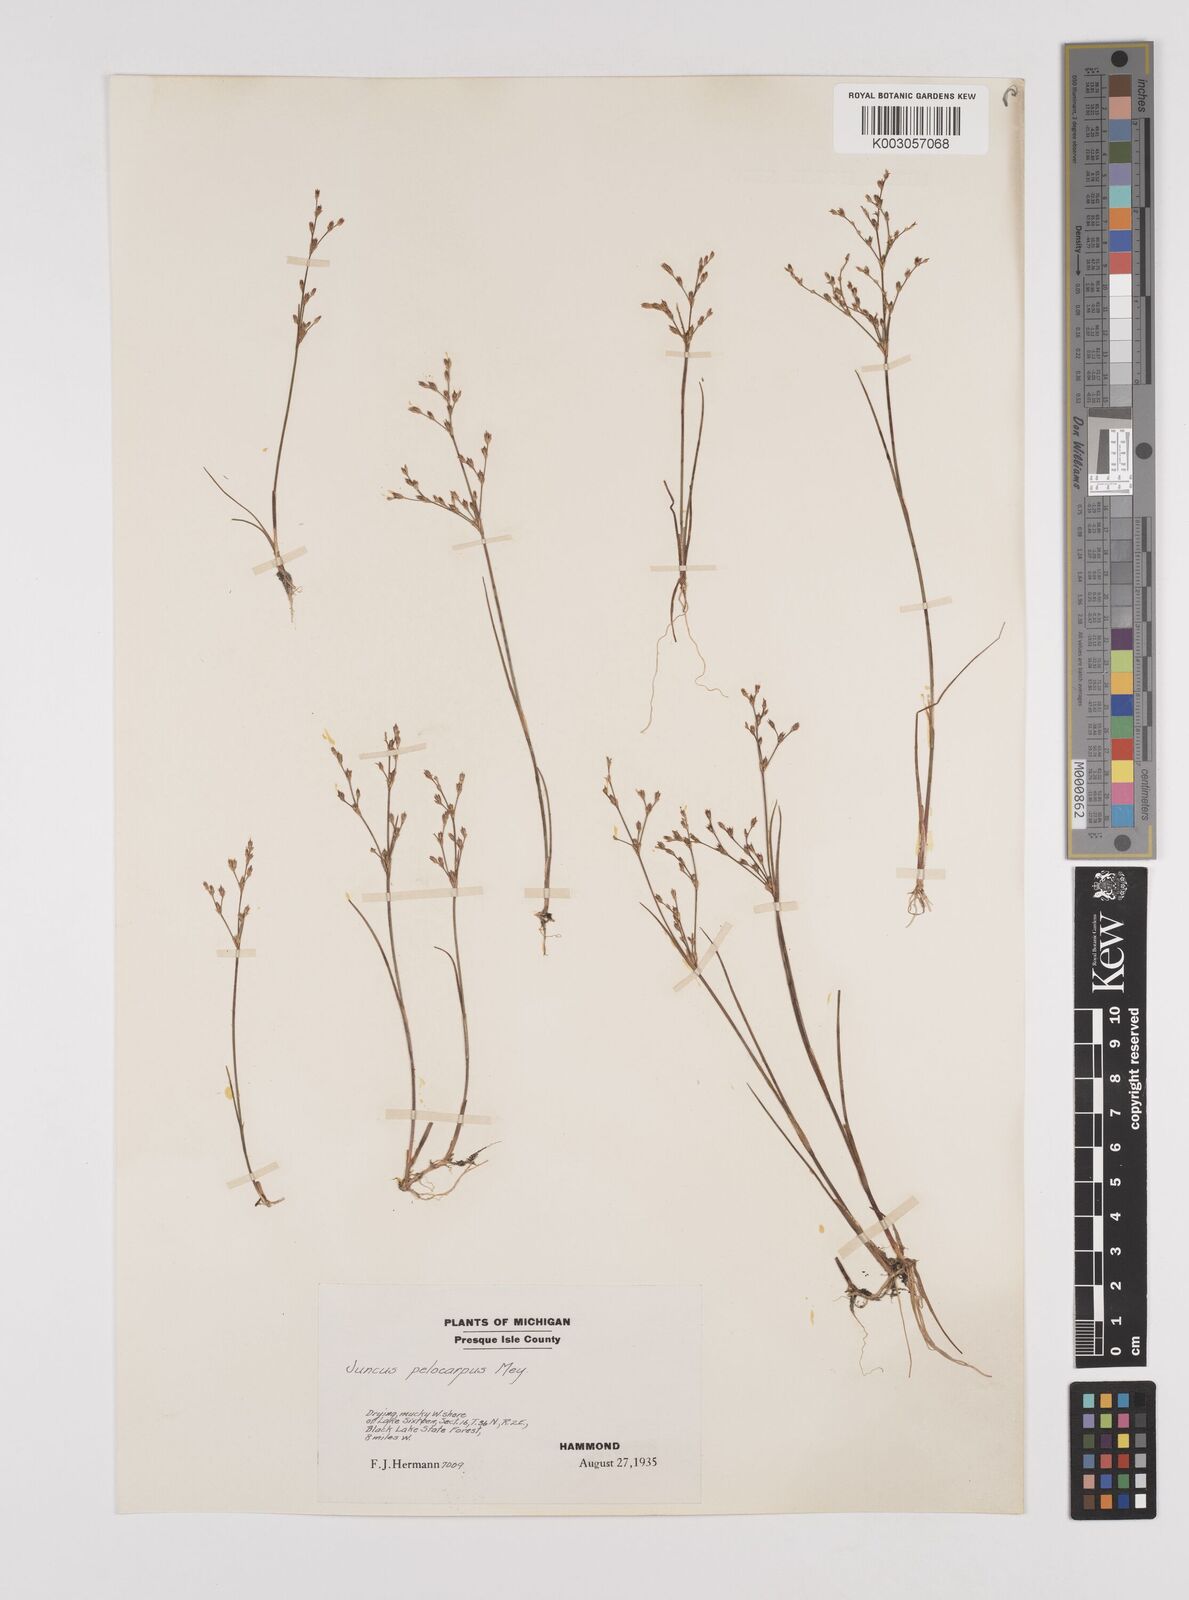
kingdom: Plantae
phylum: Tracheophyta
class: Liliopsida
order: Poales
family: Juncaceae
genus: Juncus
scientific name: Juncus pelocarpus
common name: Brown-fruited rush
